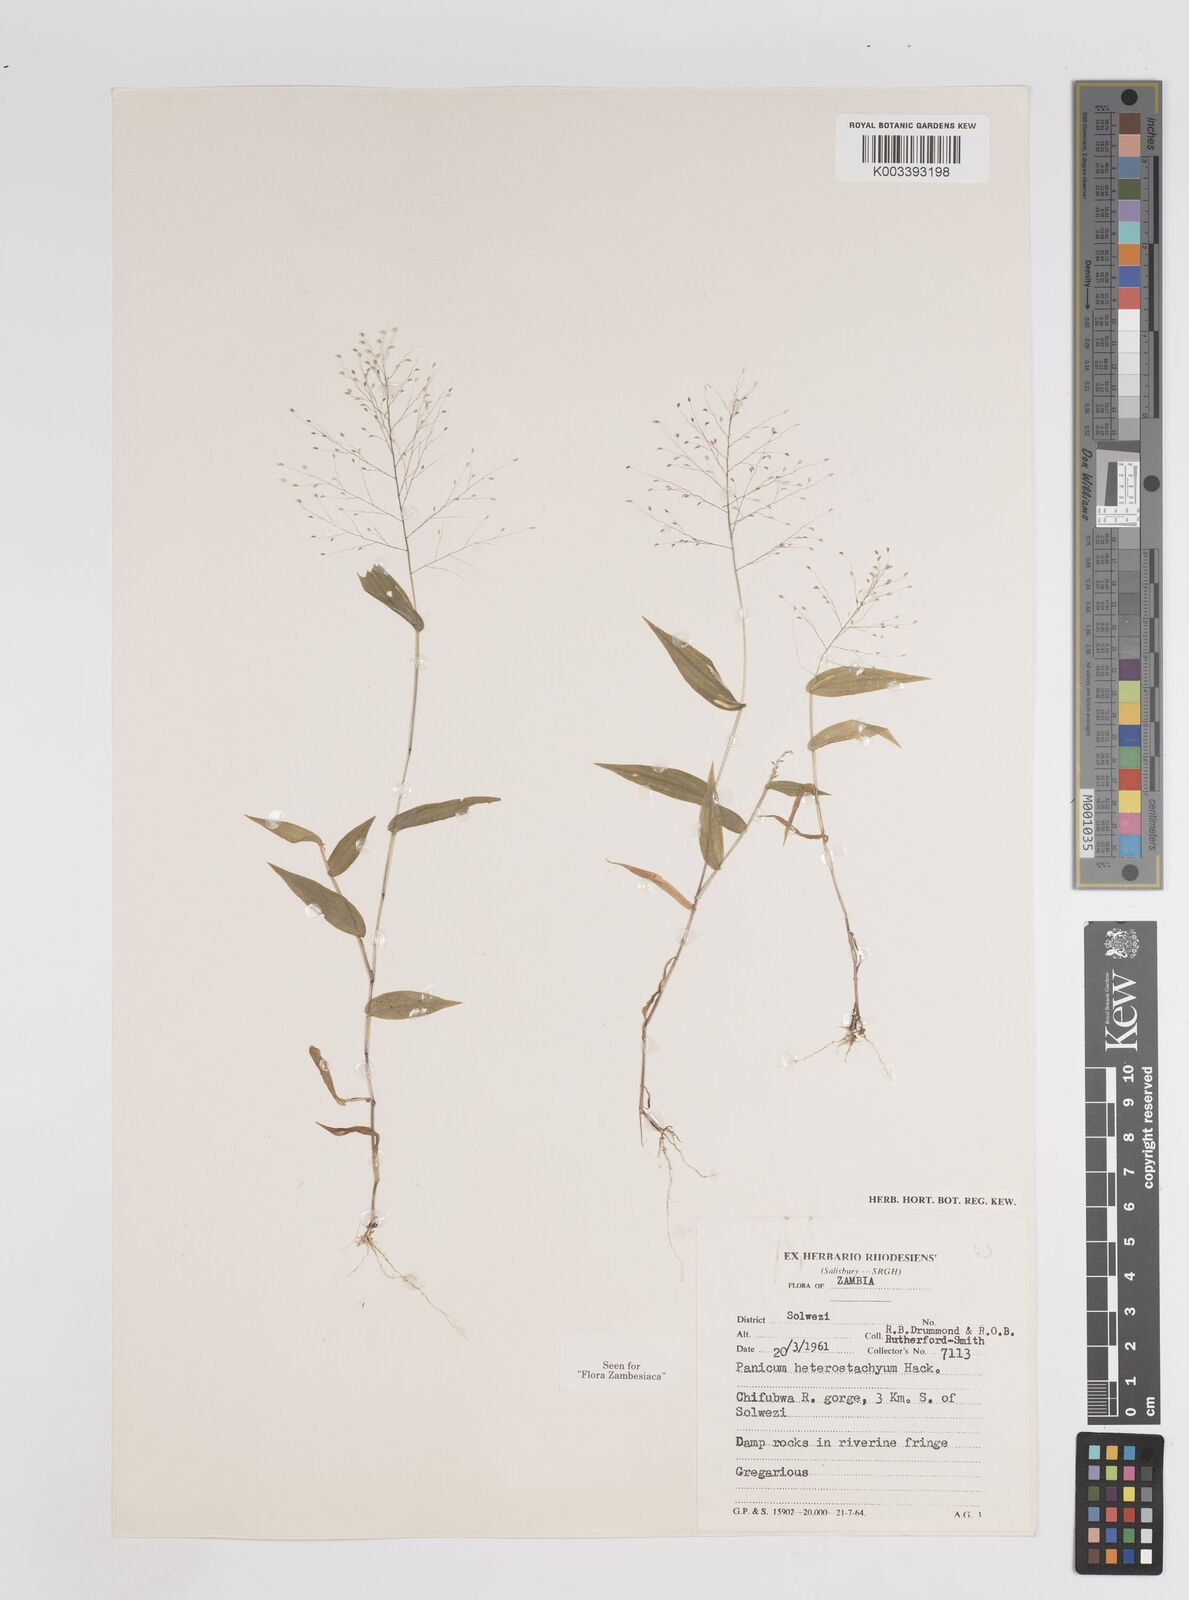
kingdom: Plantae
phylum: Tracheophyta
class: Liliopsida
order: Poales
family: Poaceae
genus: Panicum
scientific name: Panicum hirtum
